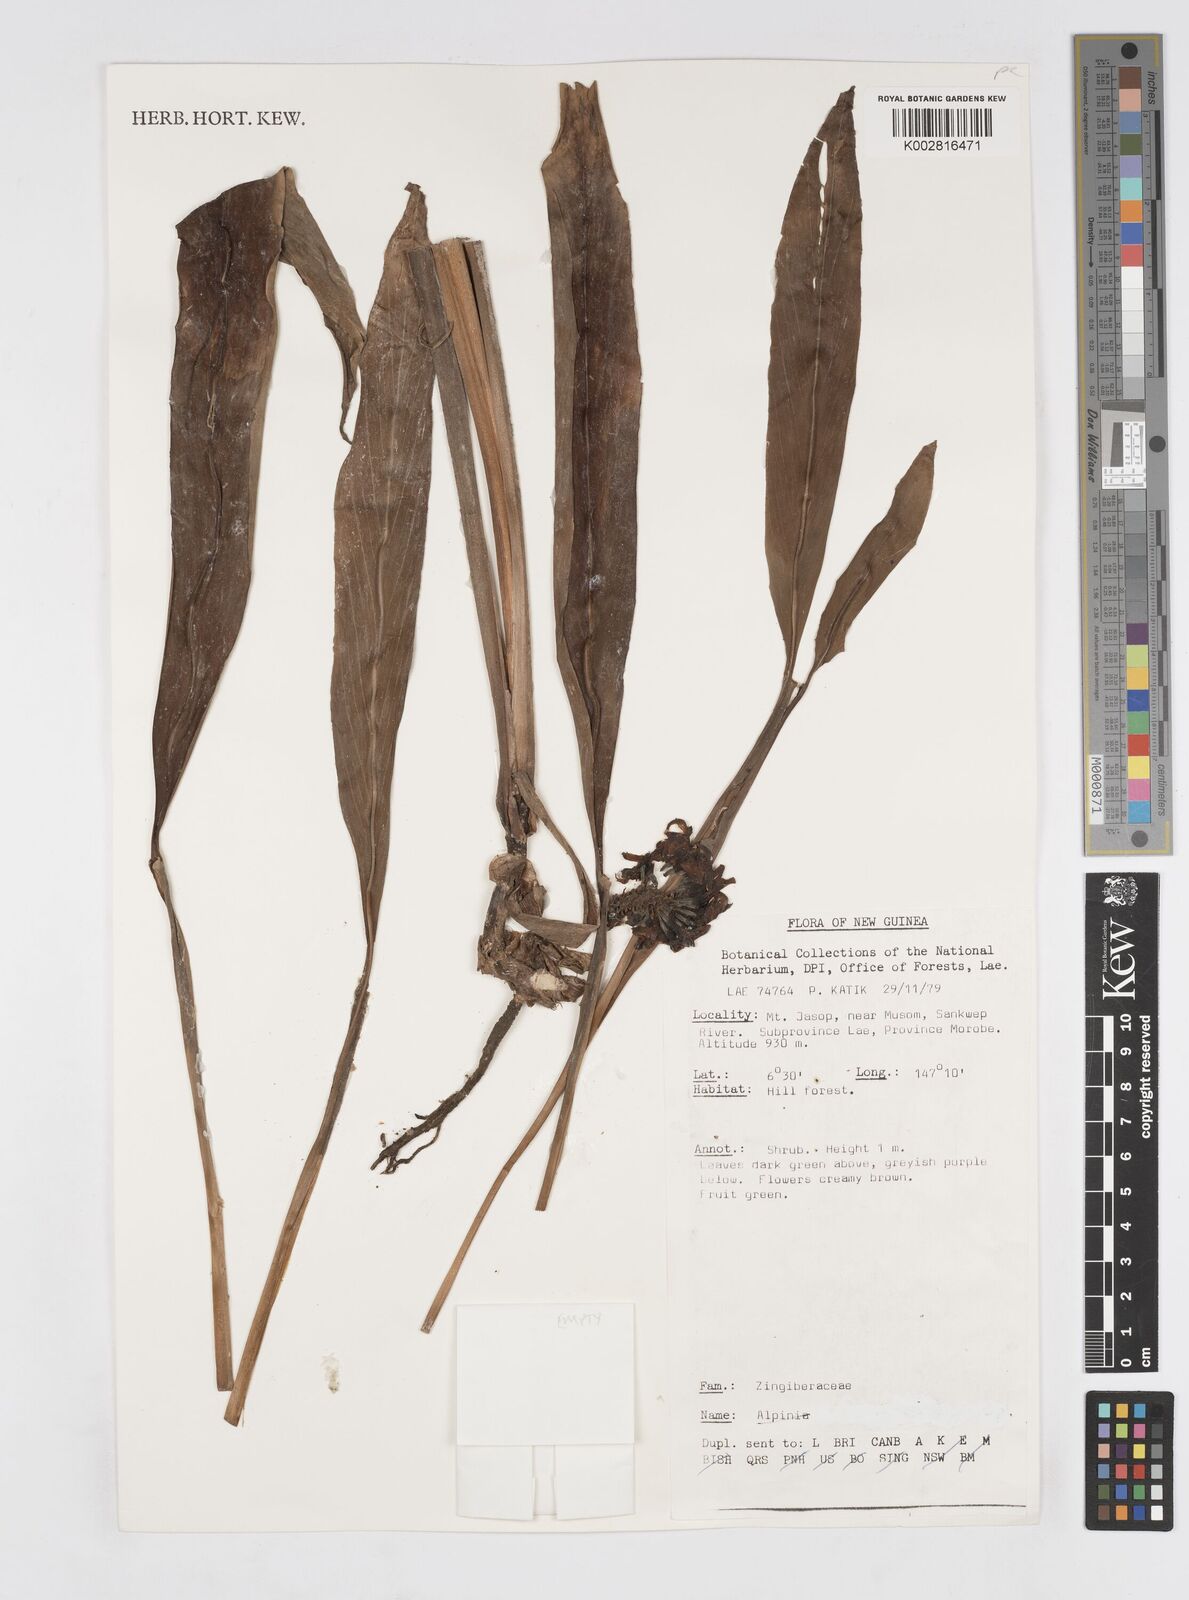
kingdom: Plantae
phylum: Tracheophyta
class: Liliopsida
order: Zingiberales
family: Zingiberaceae
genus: Alpinia
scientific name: Alpinia
